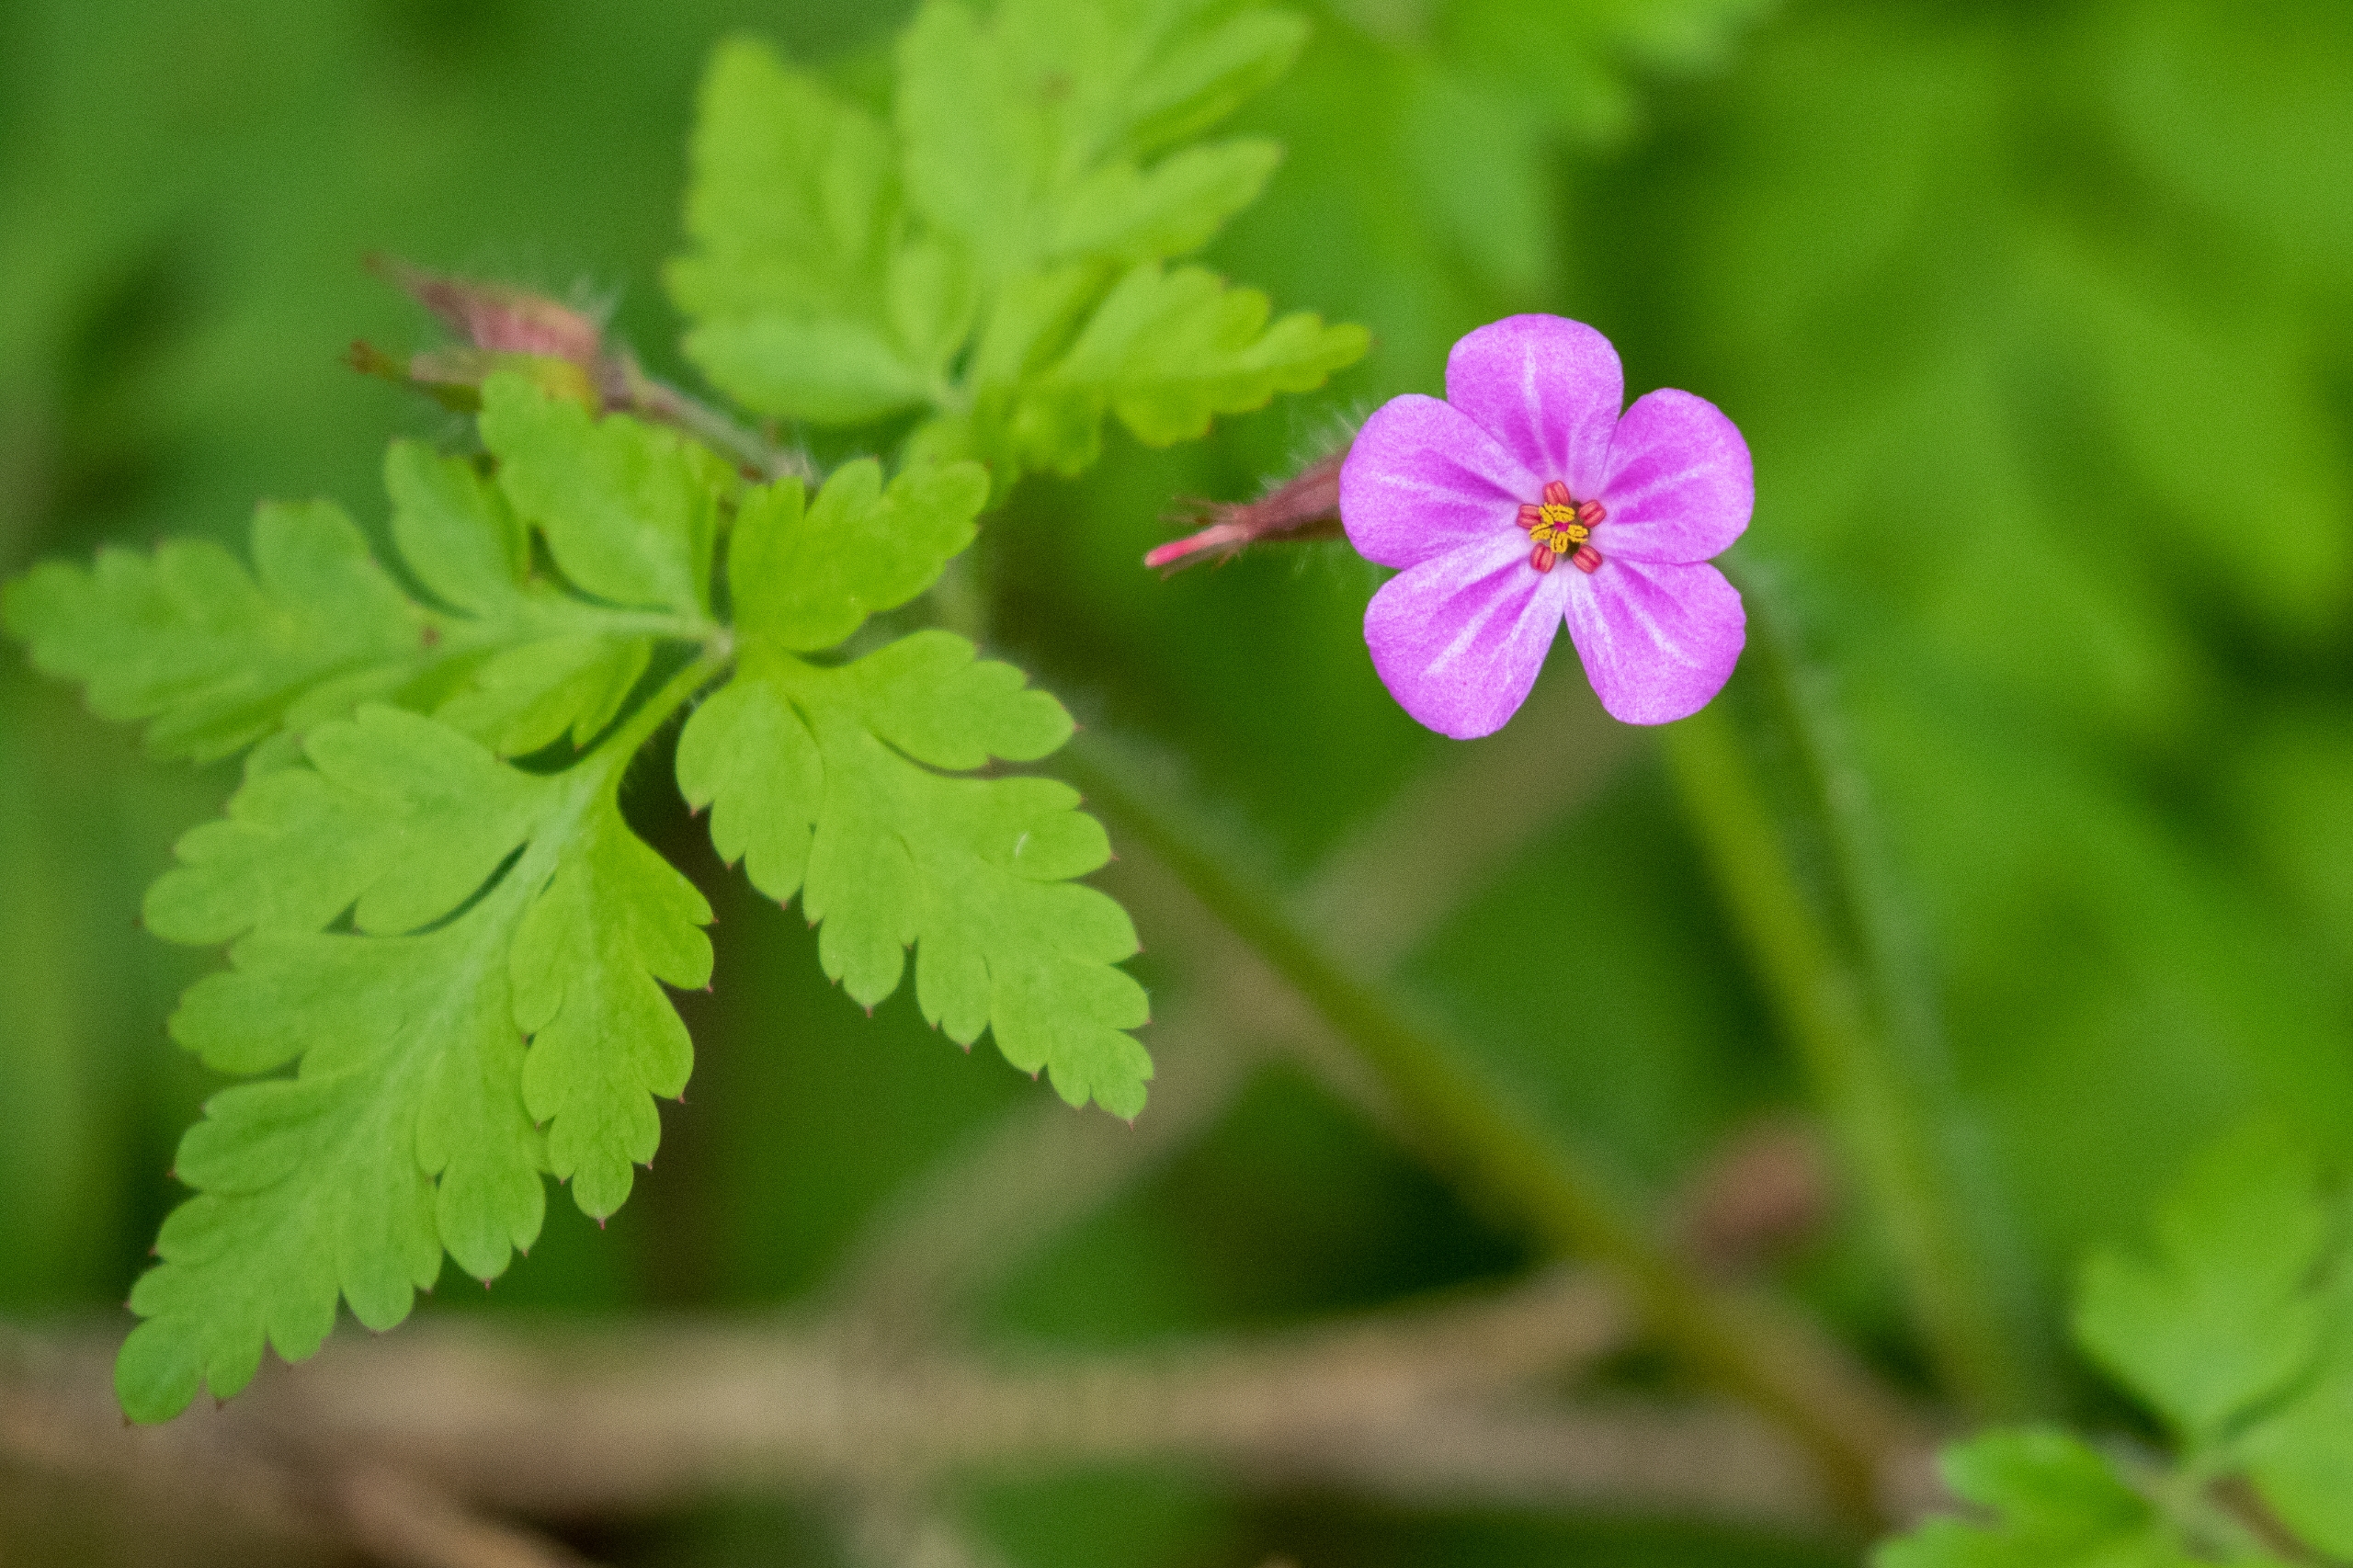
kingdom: Plantae
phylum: Tracheophyta
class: Magnoliopsida
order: Geraniales
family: Geraniaceae
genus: Geranium
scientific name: Geranium robertianum
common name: Stinkende storkenæb
